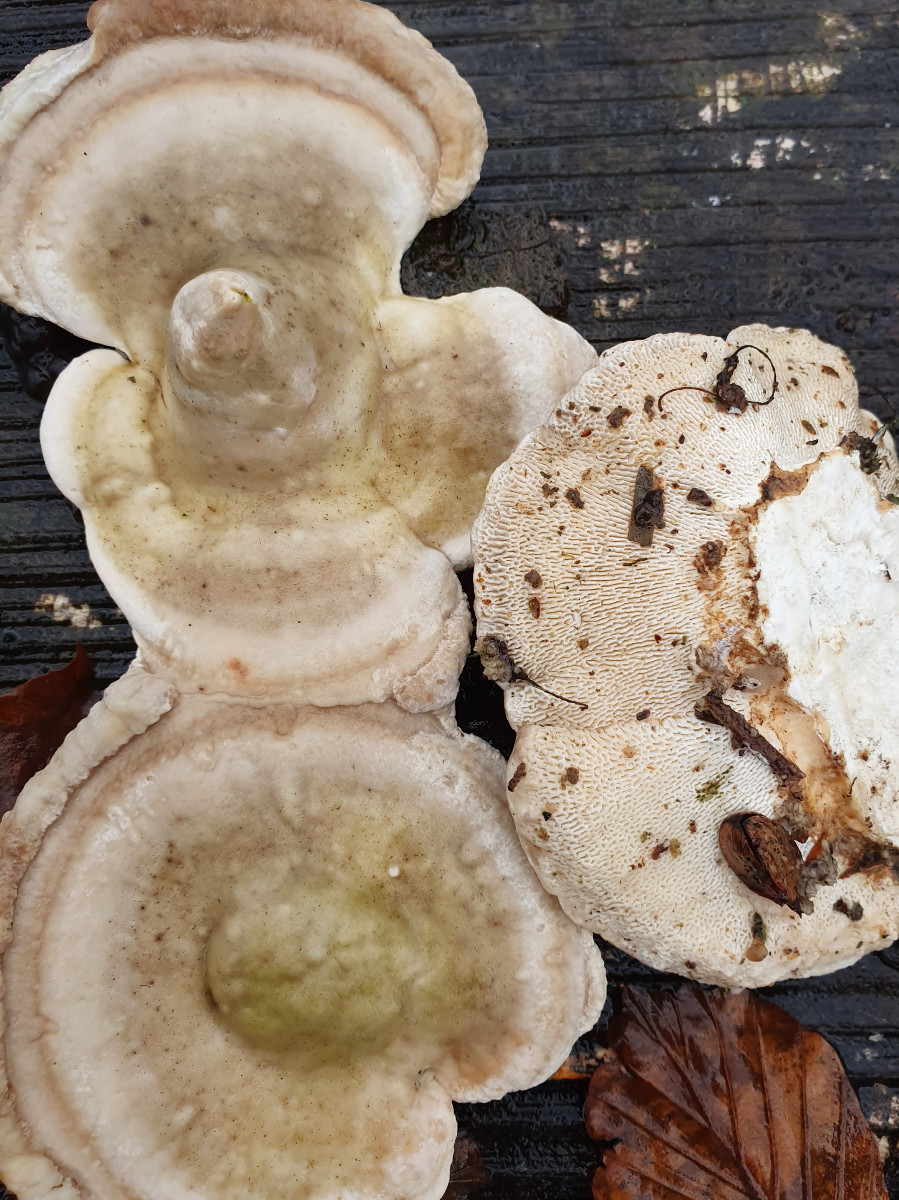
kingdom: Fungi
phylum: Basidiomycota
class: Agaricomycetes
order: Polyporales
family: Polyporaceae
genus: Trametes
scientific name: Trametes gibbosa
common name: puklet læderporesvamp
